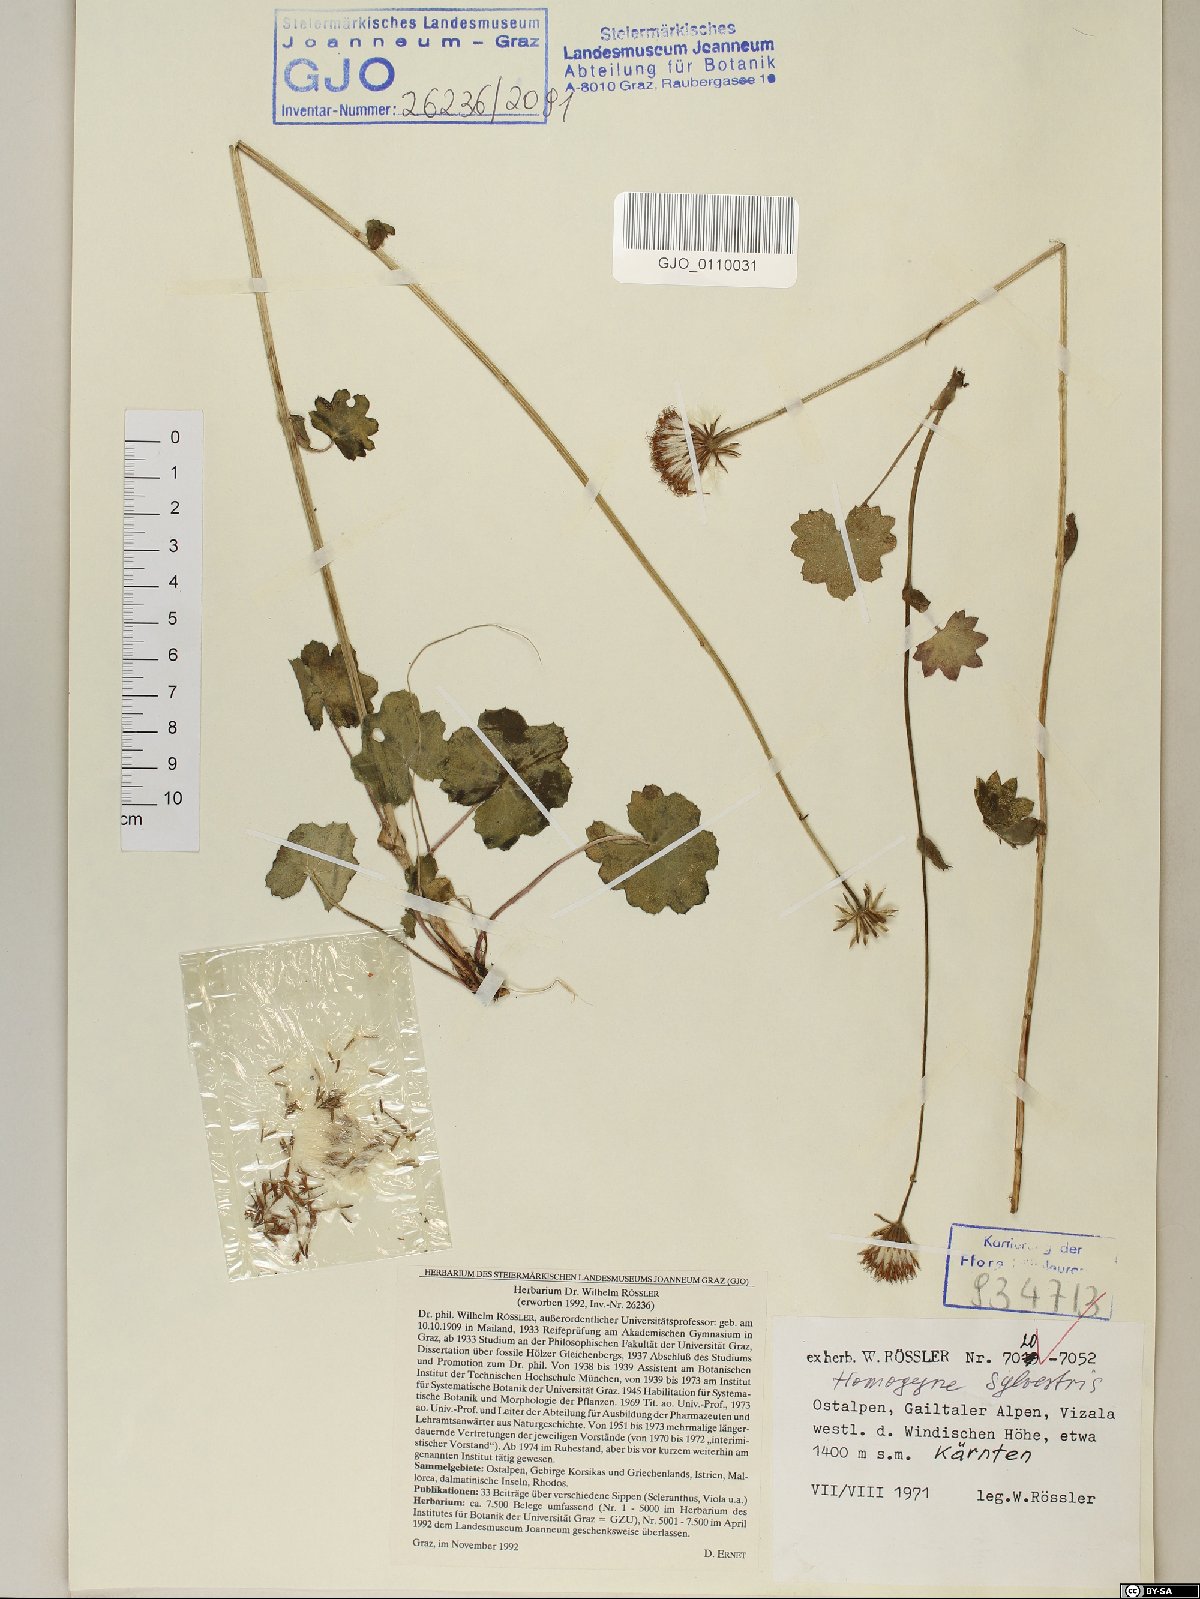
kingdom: Plantae
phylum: Tracheophyta
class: Magnoliopsida
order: Asterales
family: Asteraceae
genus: Homogyne
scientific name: Homogyne sylvestris
